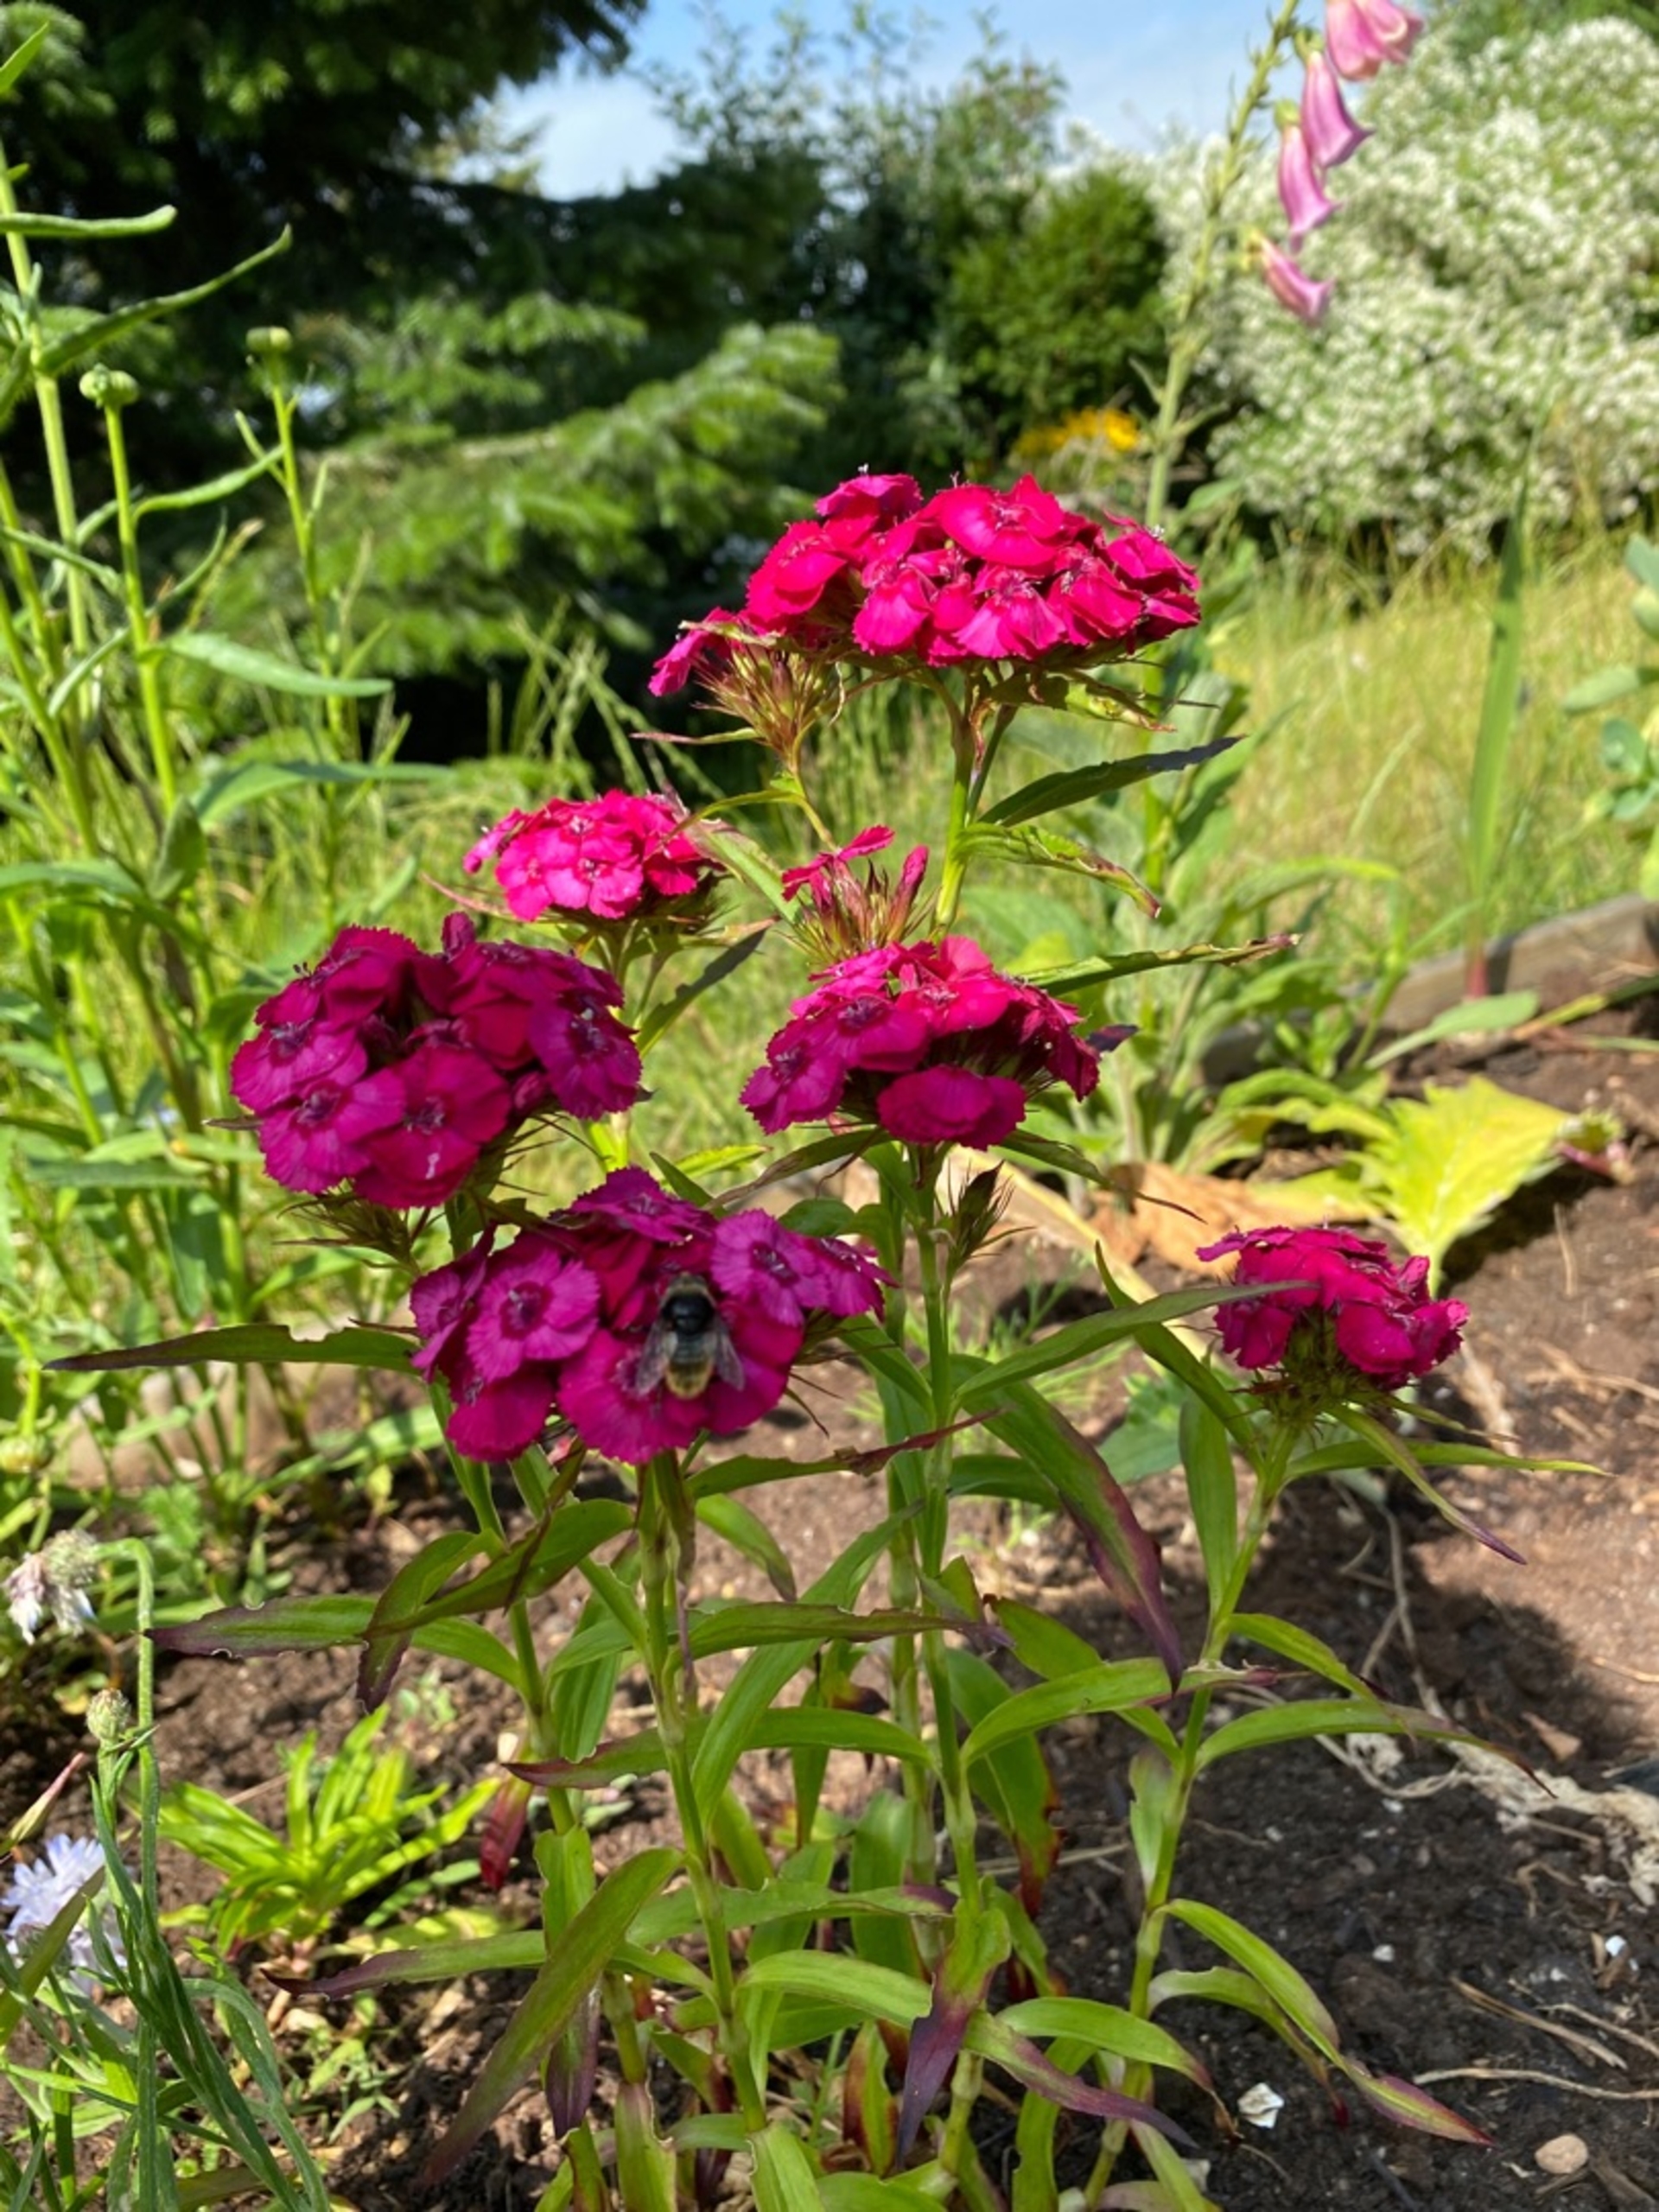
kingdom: Plantae
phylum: Tracheophyta
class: Magnoliopsida
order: Caryophyllales
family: Caryophyllaceae
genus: Dianthus
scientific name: Dianthus barbatus
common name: Studenter-nellike
